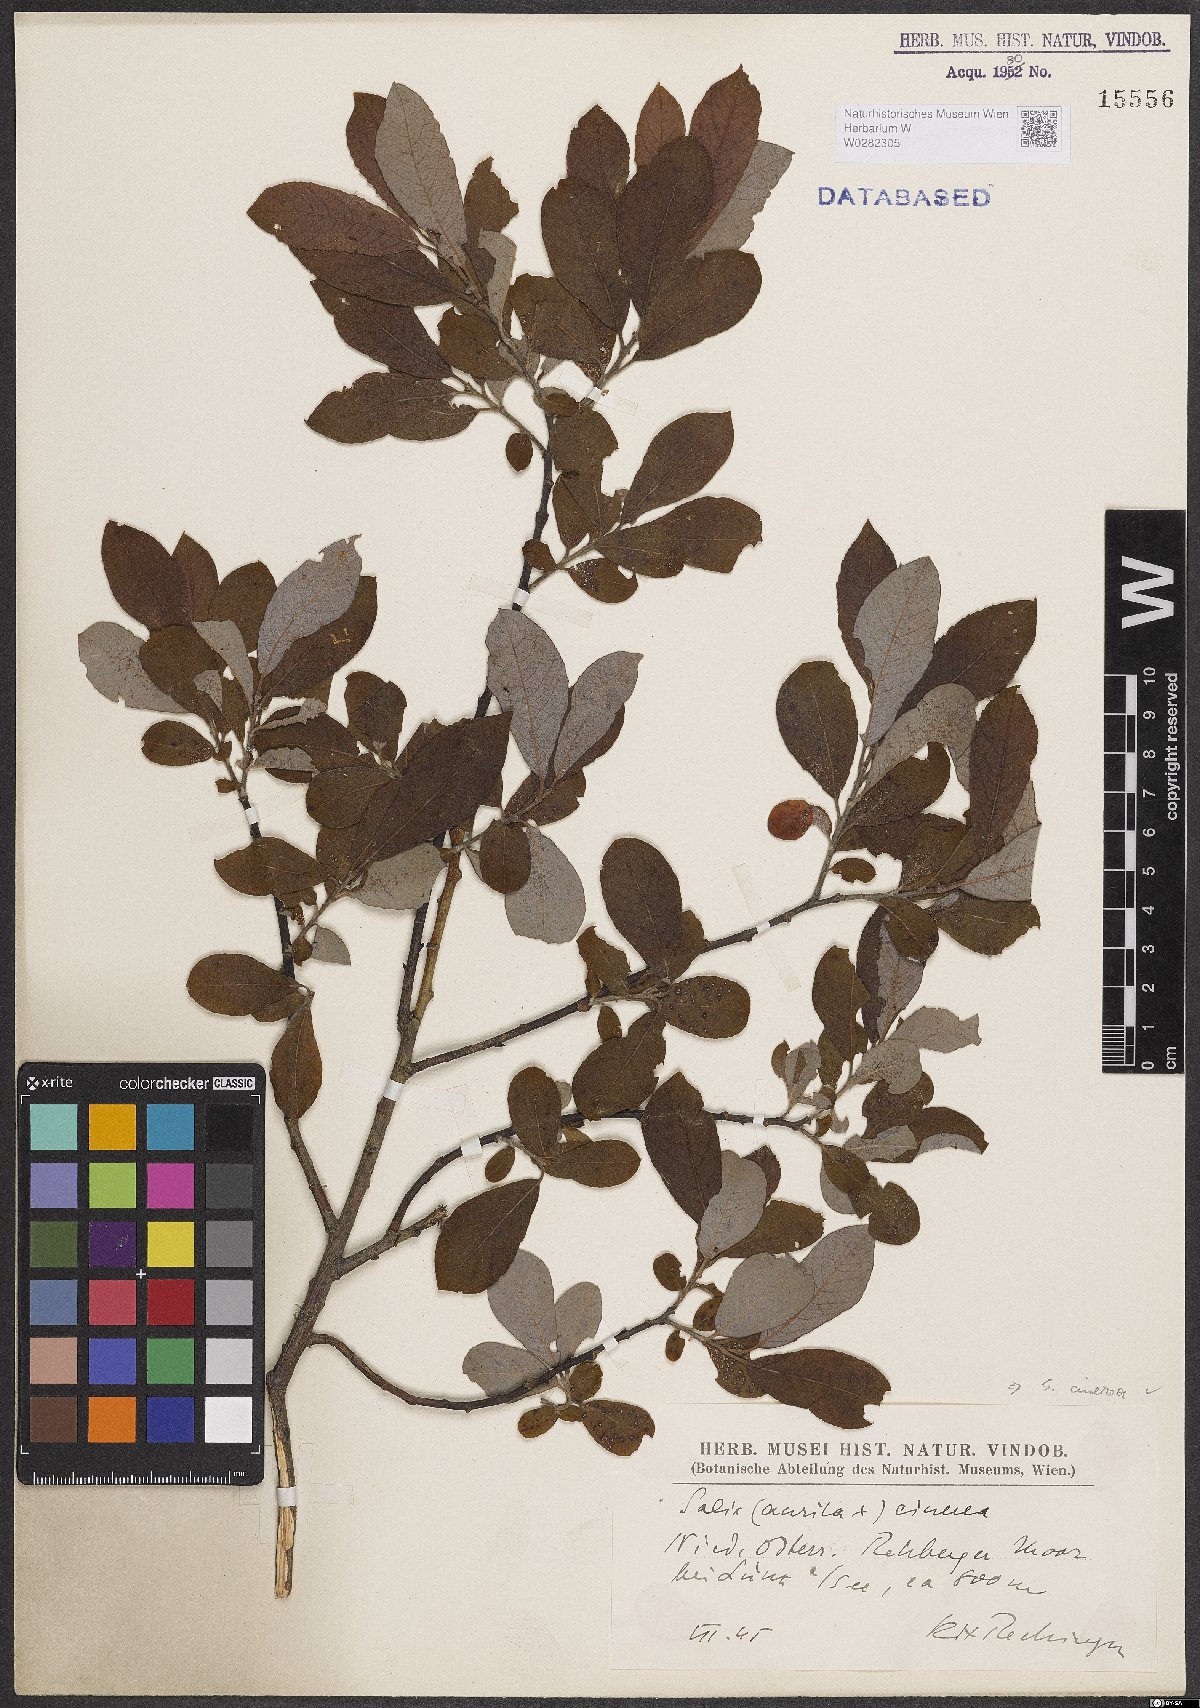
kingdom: Plantae
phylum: Tracheophyta
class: Magnoliopsida
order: Malpighiales
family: Salicaceae
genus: Salix
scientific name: Salix cinerea
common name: Common sallow
